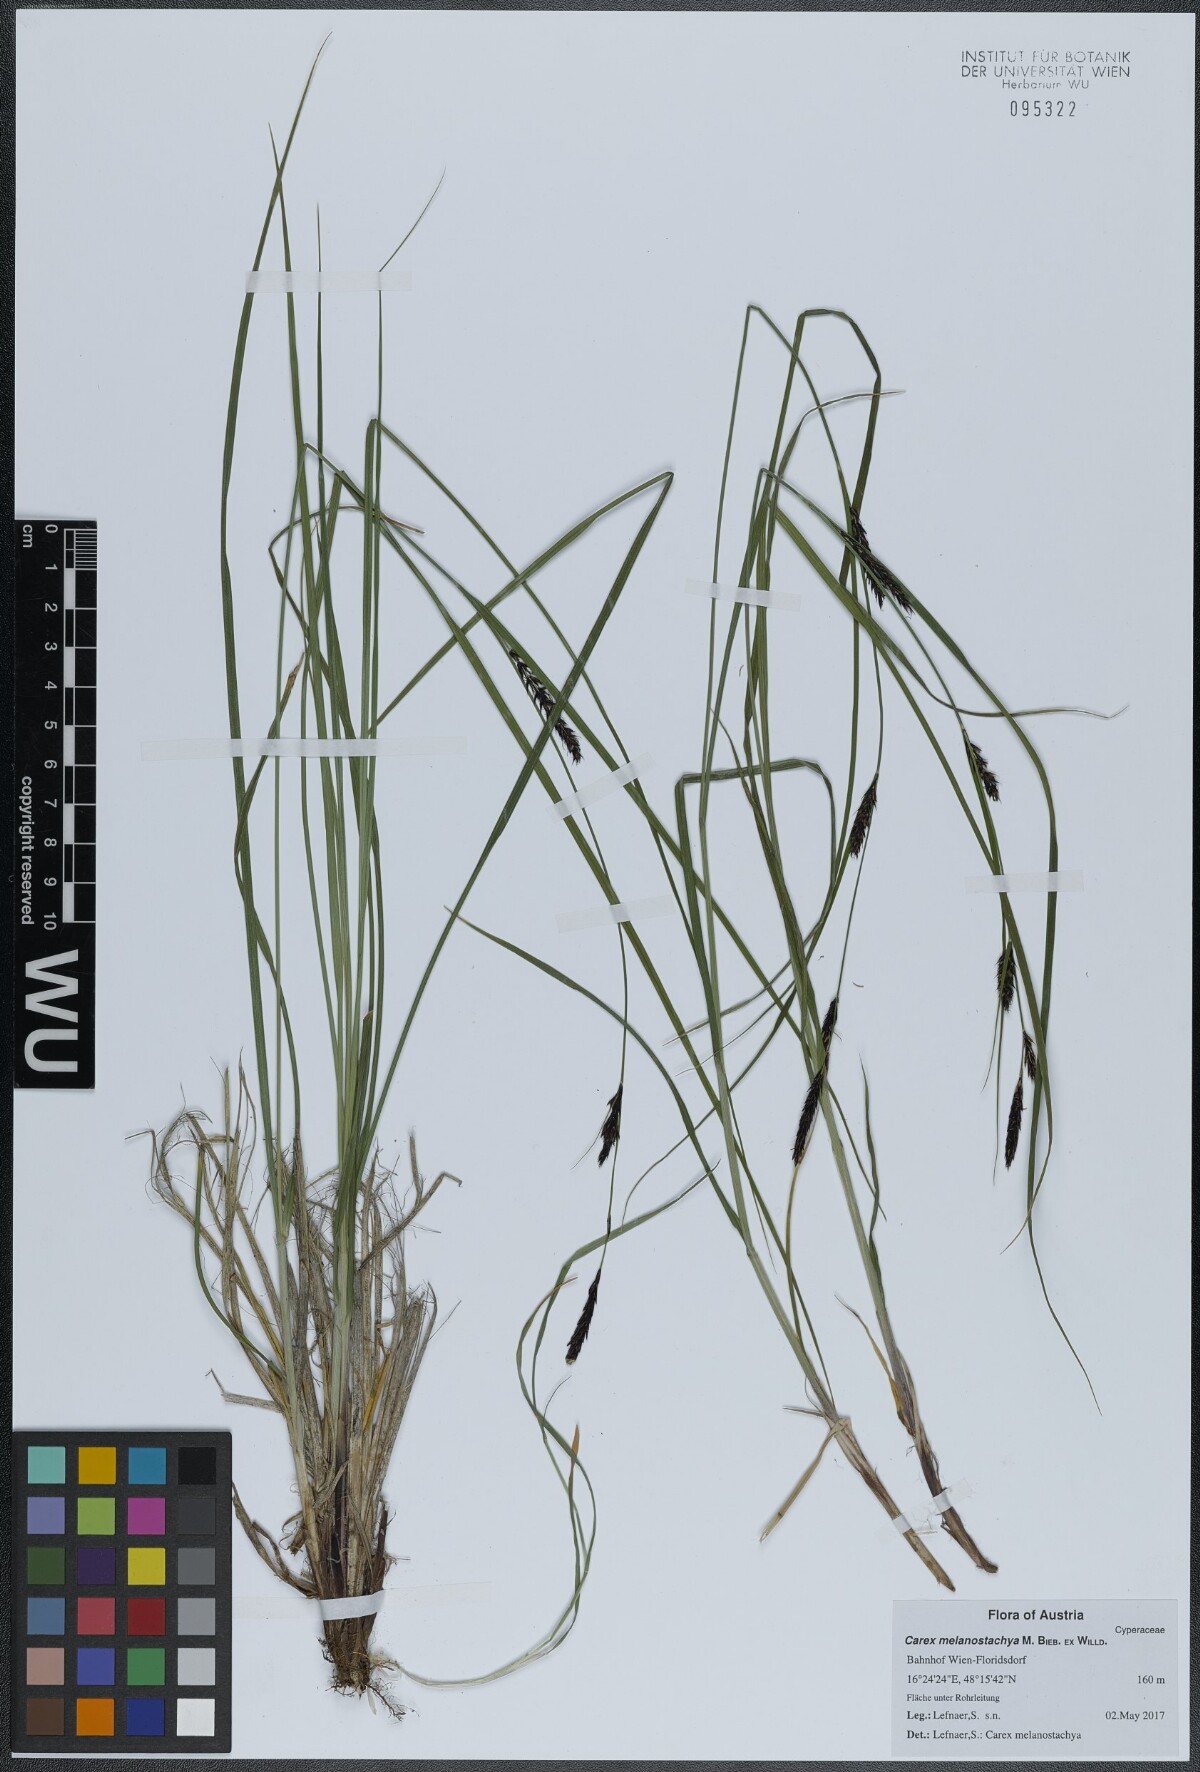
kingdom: Plantae
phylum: Tracheophyta
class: Liliopsida
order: Poales
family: Cyperaceae
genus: Carex
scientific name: Carex melanostachya
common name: Black-spiked sedge
